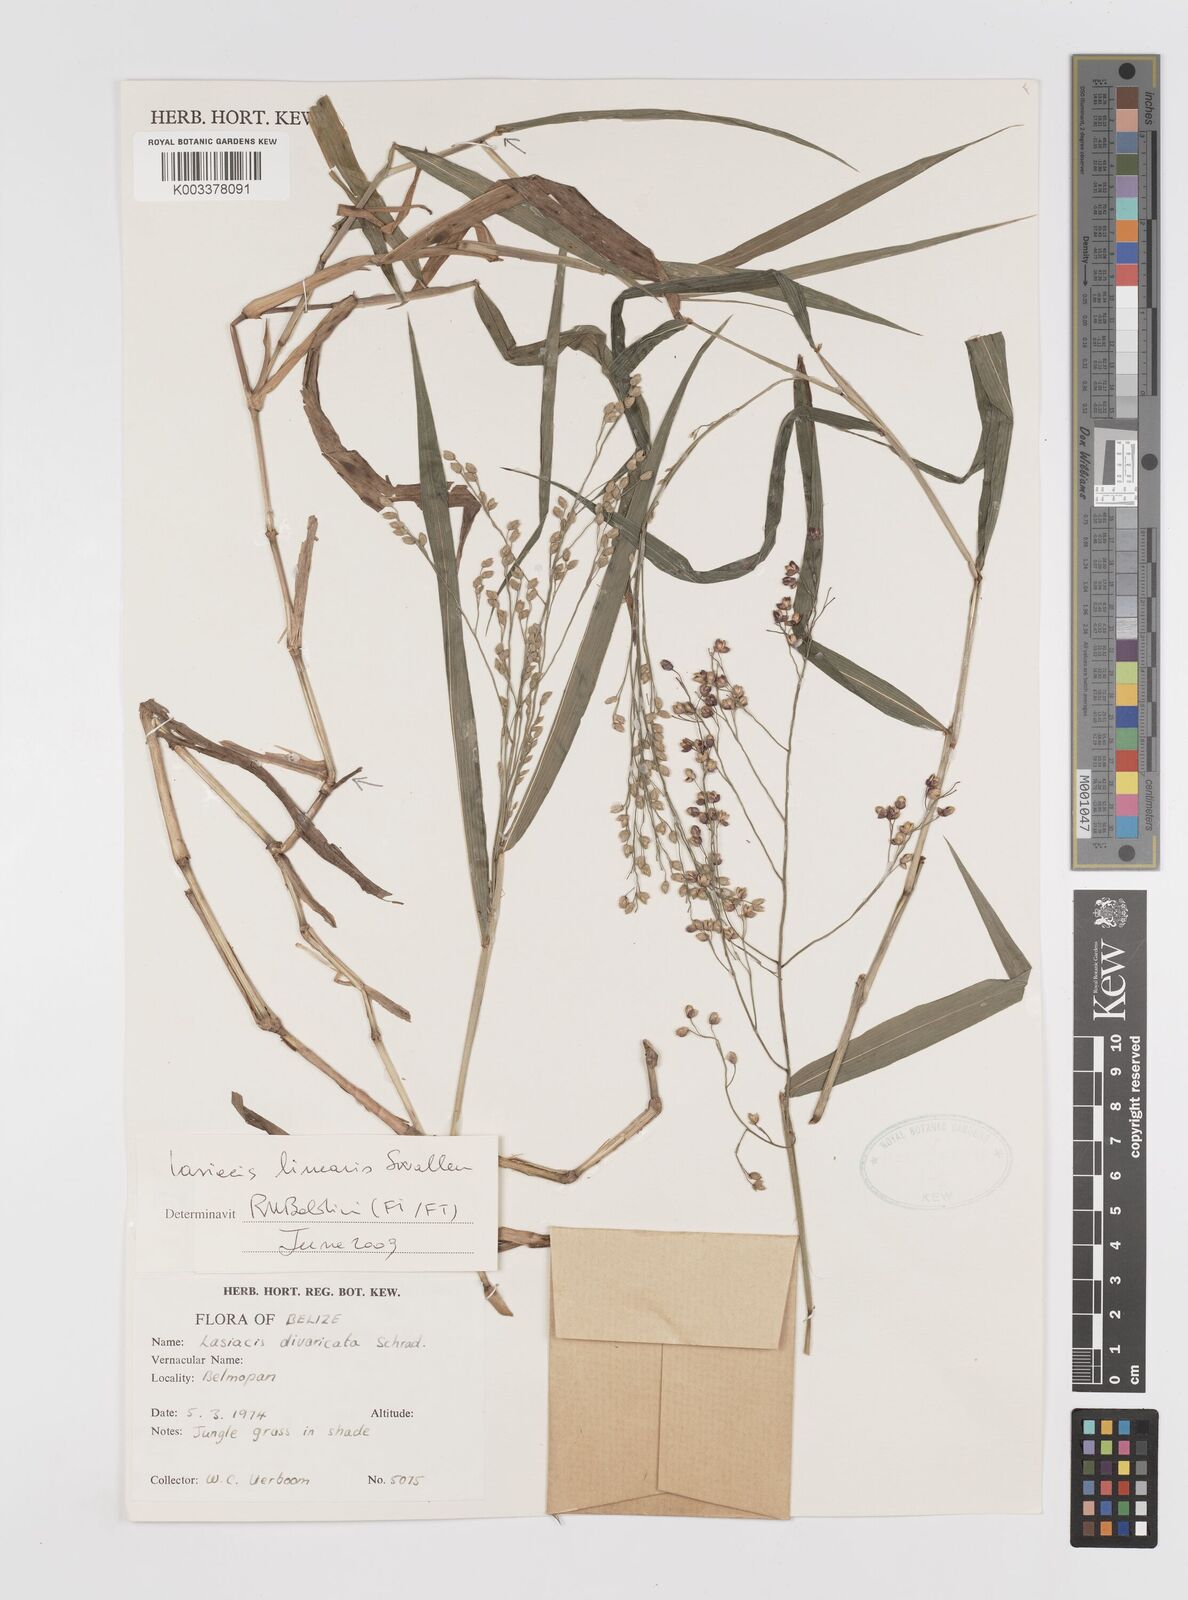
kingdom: Plantae
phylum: Tracheophyta
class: Liliopsida
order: Poales
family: Poaceae
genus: Lasiacis
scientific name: Lasiacis linearis
